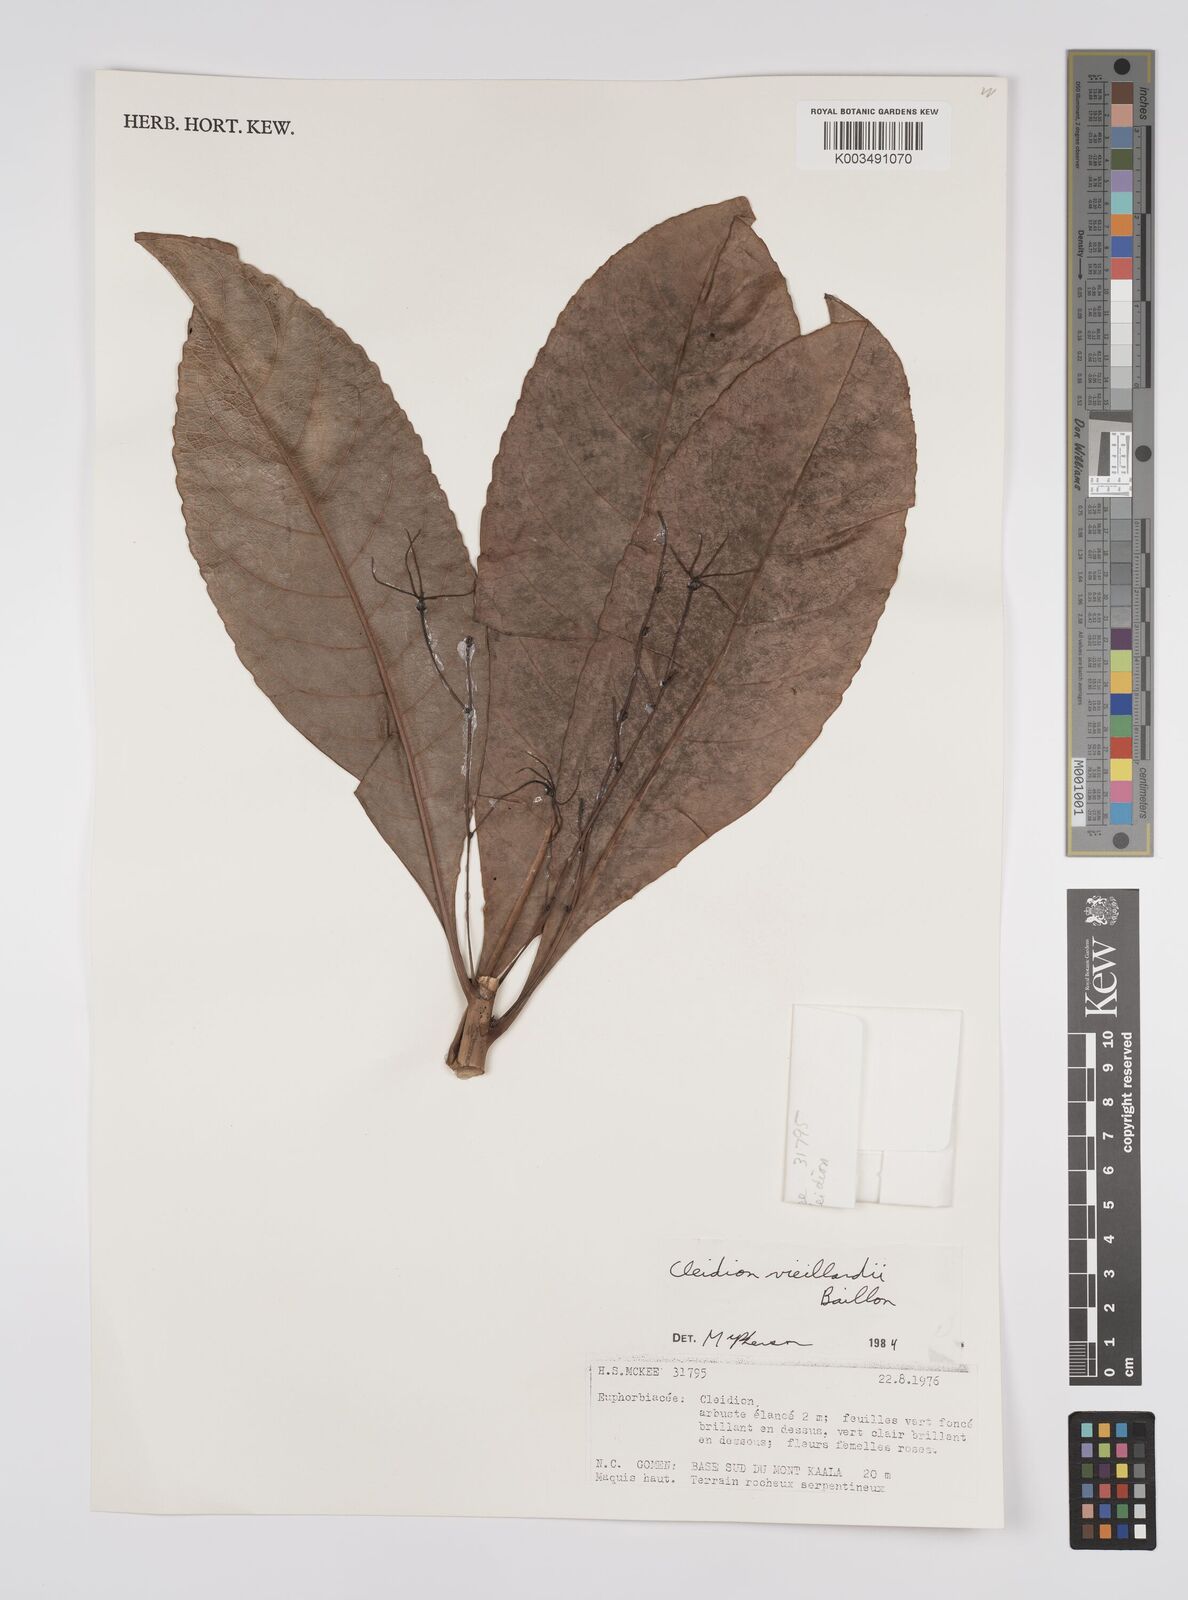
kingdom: Plantae
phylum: Tracheophyta
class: Magnoliopsida
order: Malpighiales
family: Euphorbiaceae
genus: Cleidion
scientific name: Cleidion vieillardii
